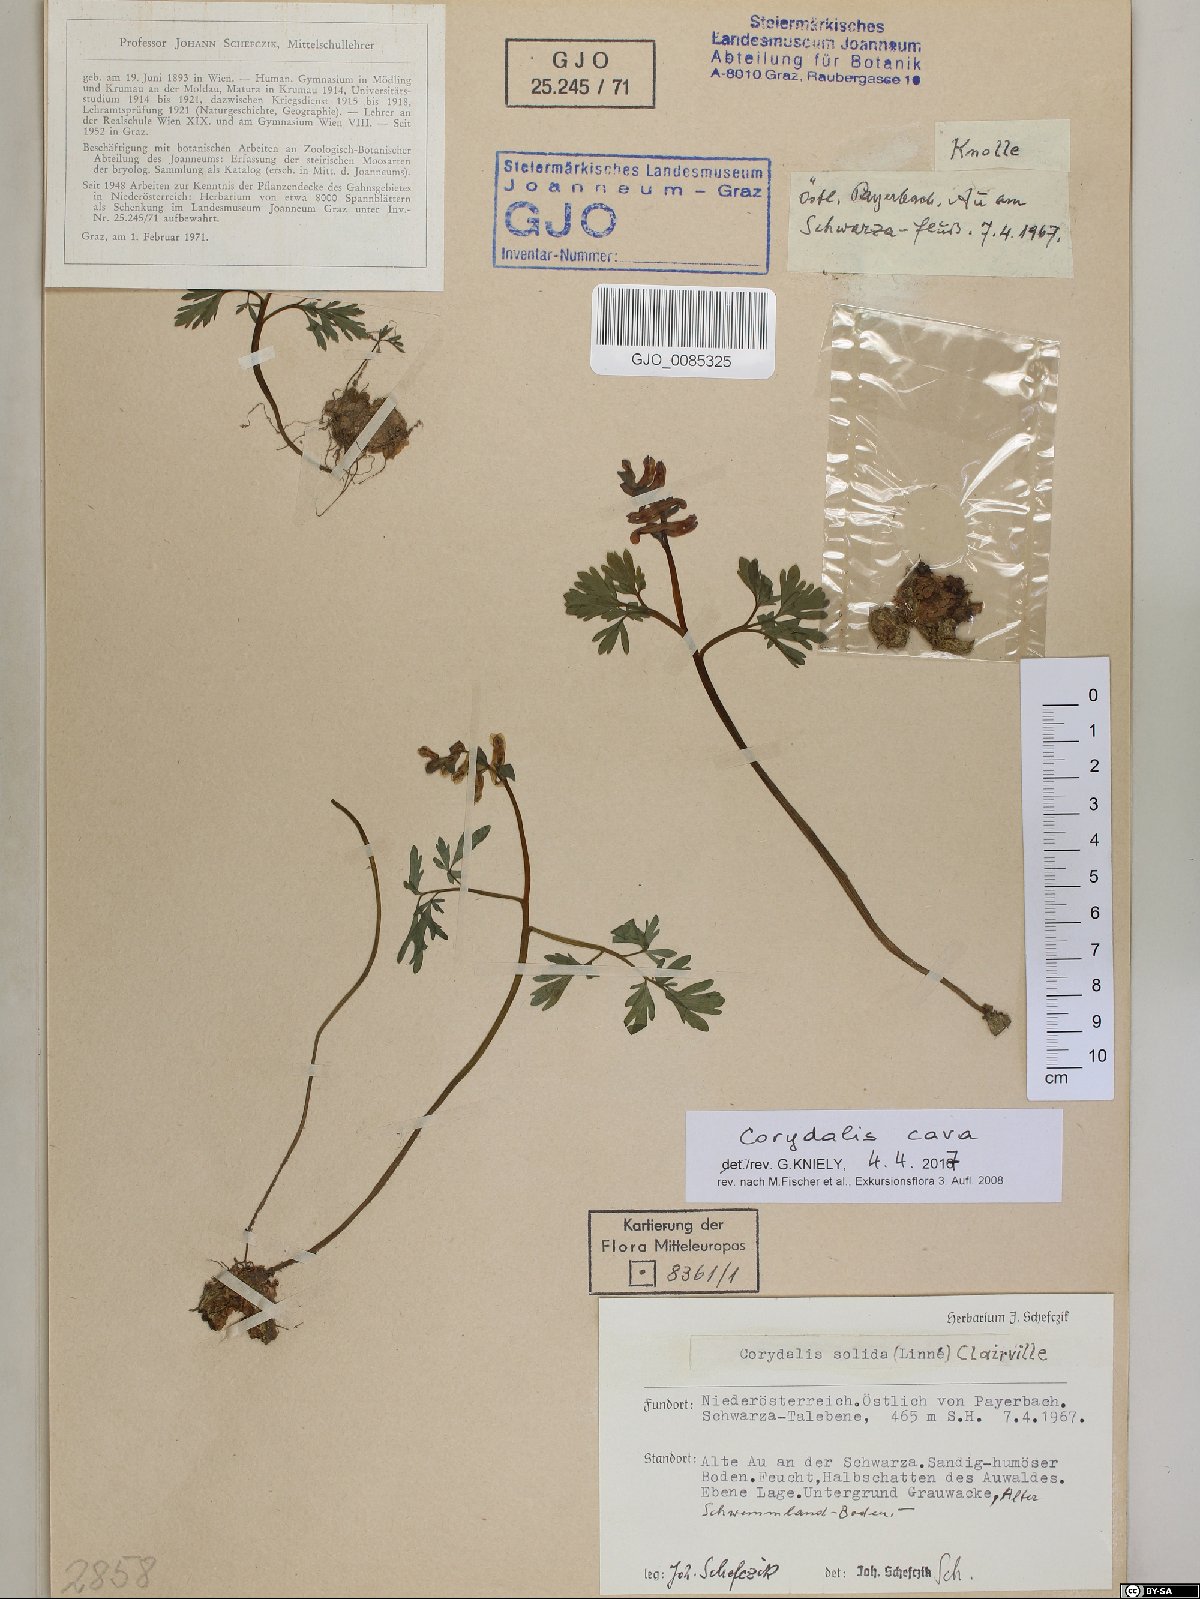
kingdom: Plantae
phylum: Tracheophyta
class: Magnoliopsida
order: Ranunculales
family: Papaveraceae
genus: Corydalis
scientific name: Corydalis cava
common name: Hollowroot
